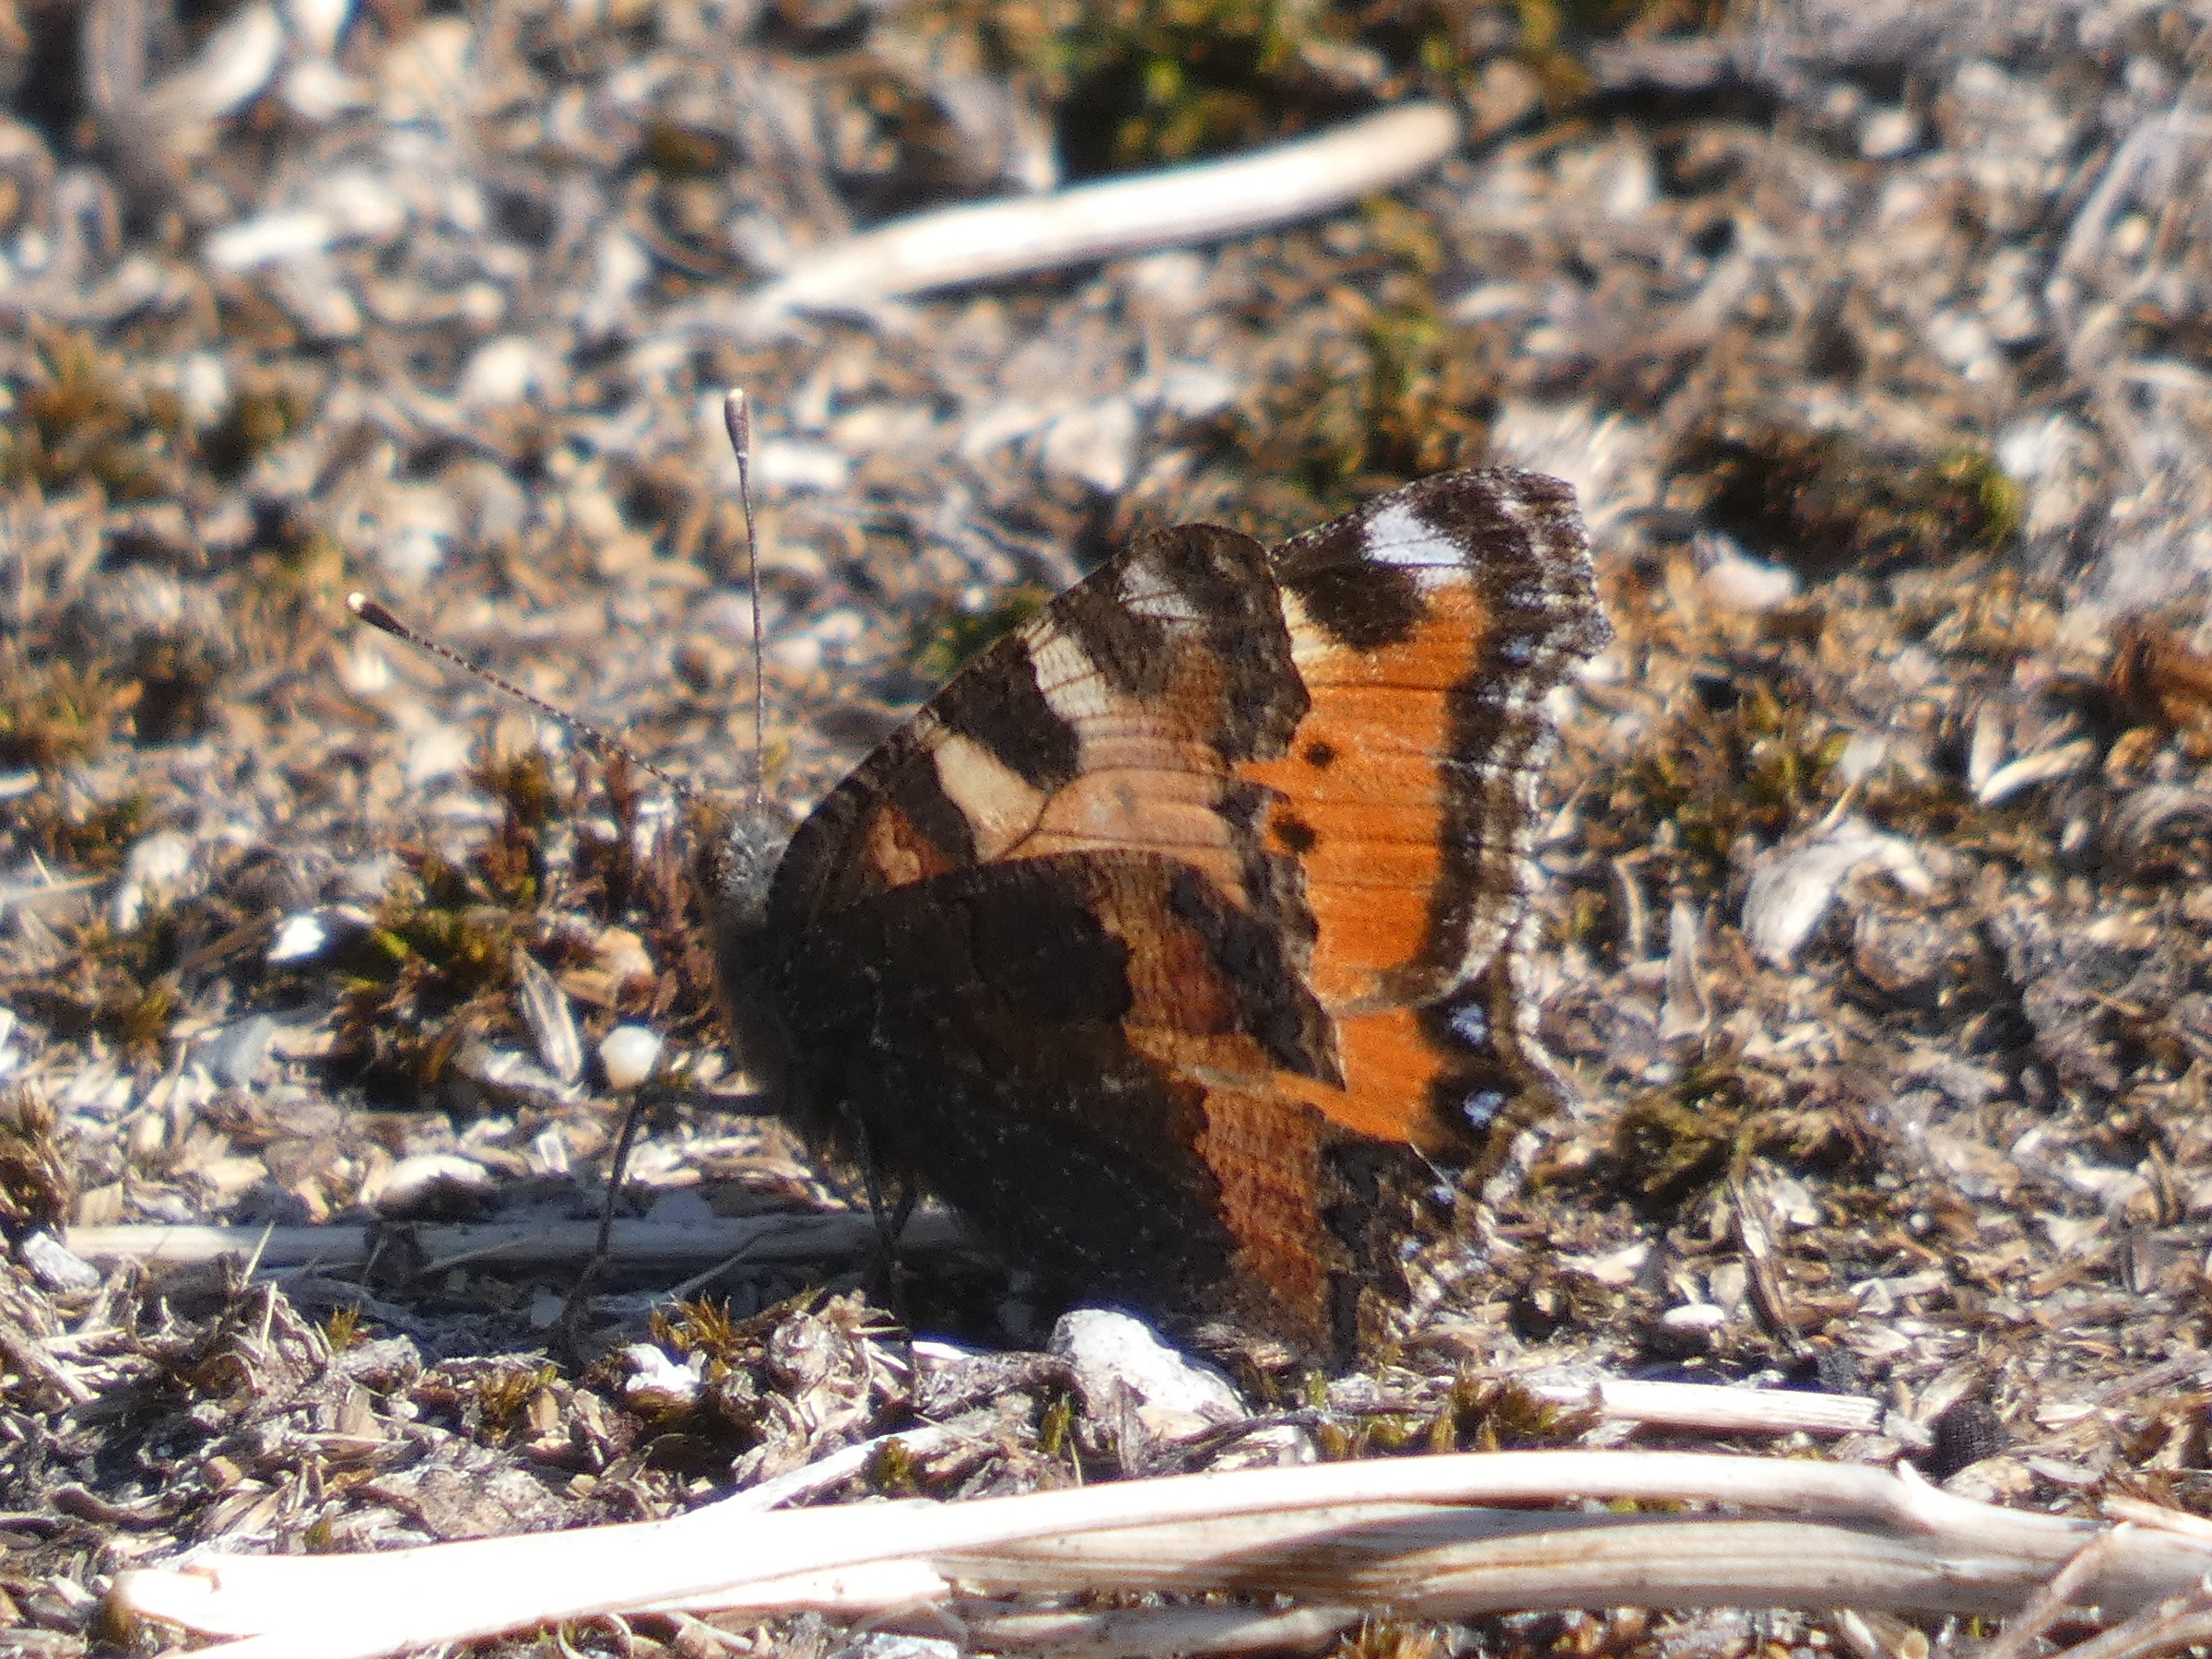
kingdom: Animalia
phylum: Arthropoda
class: Insecta
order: Lepidoptera
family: Nymphalidae
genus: Aglais
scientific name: Aglais urticae
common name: Nældens takvinge
